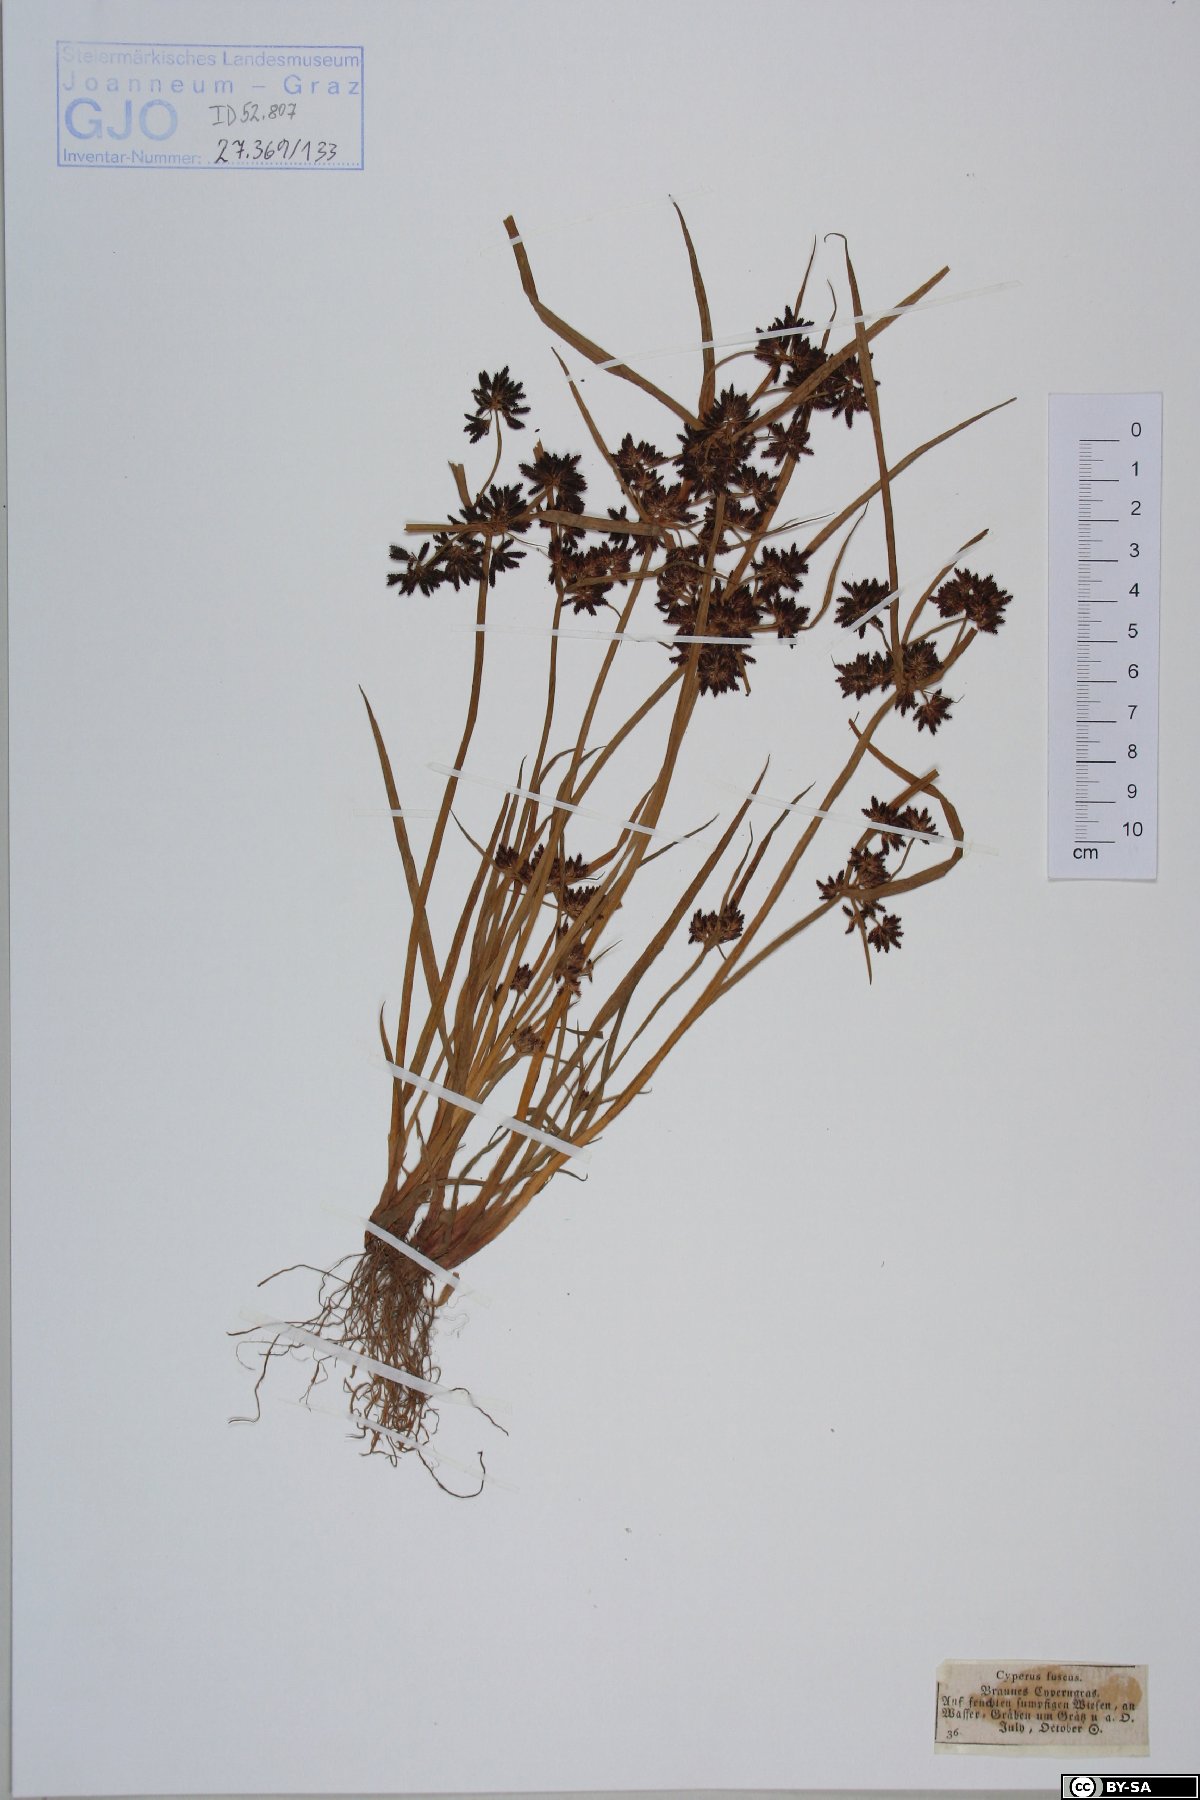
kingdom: Plantae
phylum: Tracheophyta
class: Liliopsida
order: Poales
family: Cyperaceae
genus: Cyperus
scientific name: Cyperus fuscus
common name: Brown galingale
